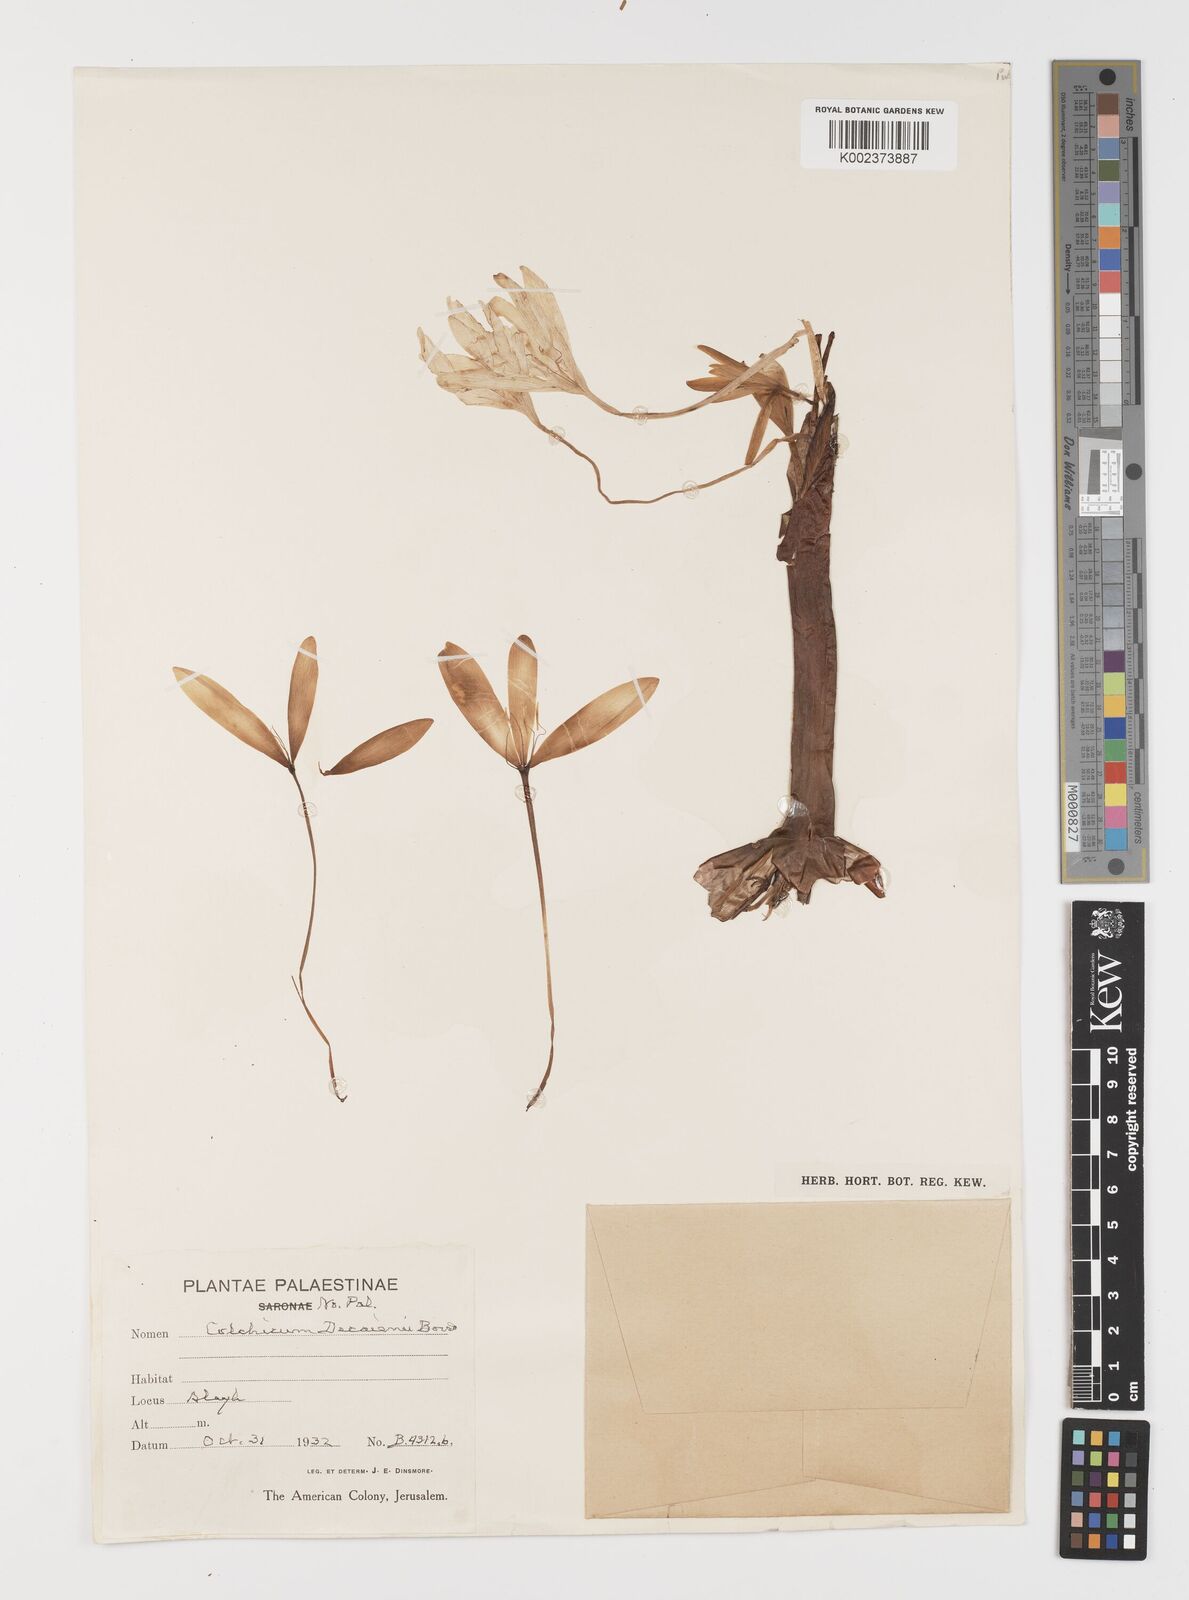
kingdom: Plantae
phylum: Tracheophyta
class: Liliopsida
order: Liliales
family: Colchicaceae
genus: Colchicum
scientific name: Colchicum decaisnei
